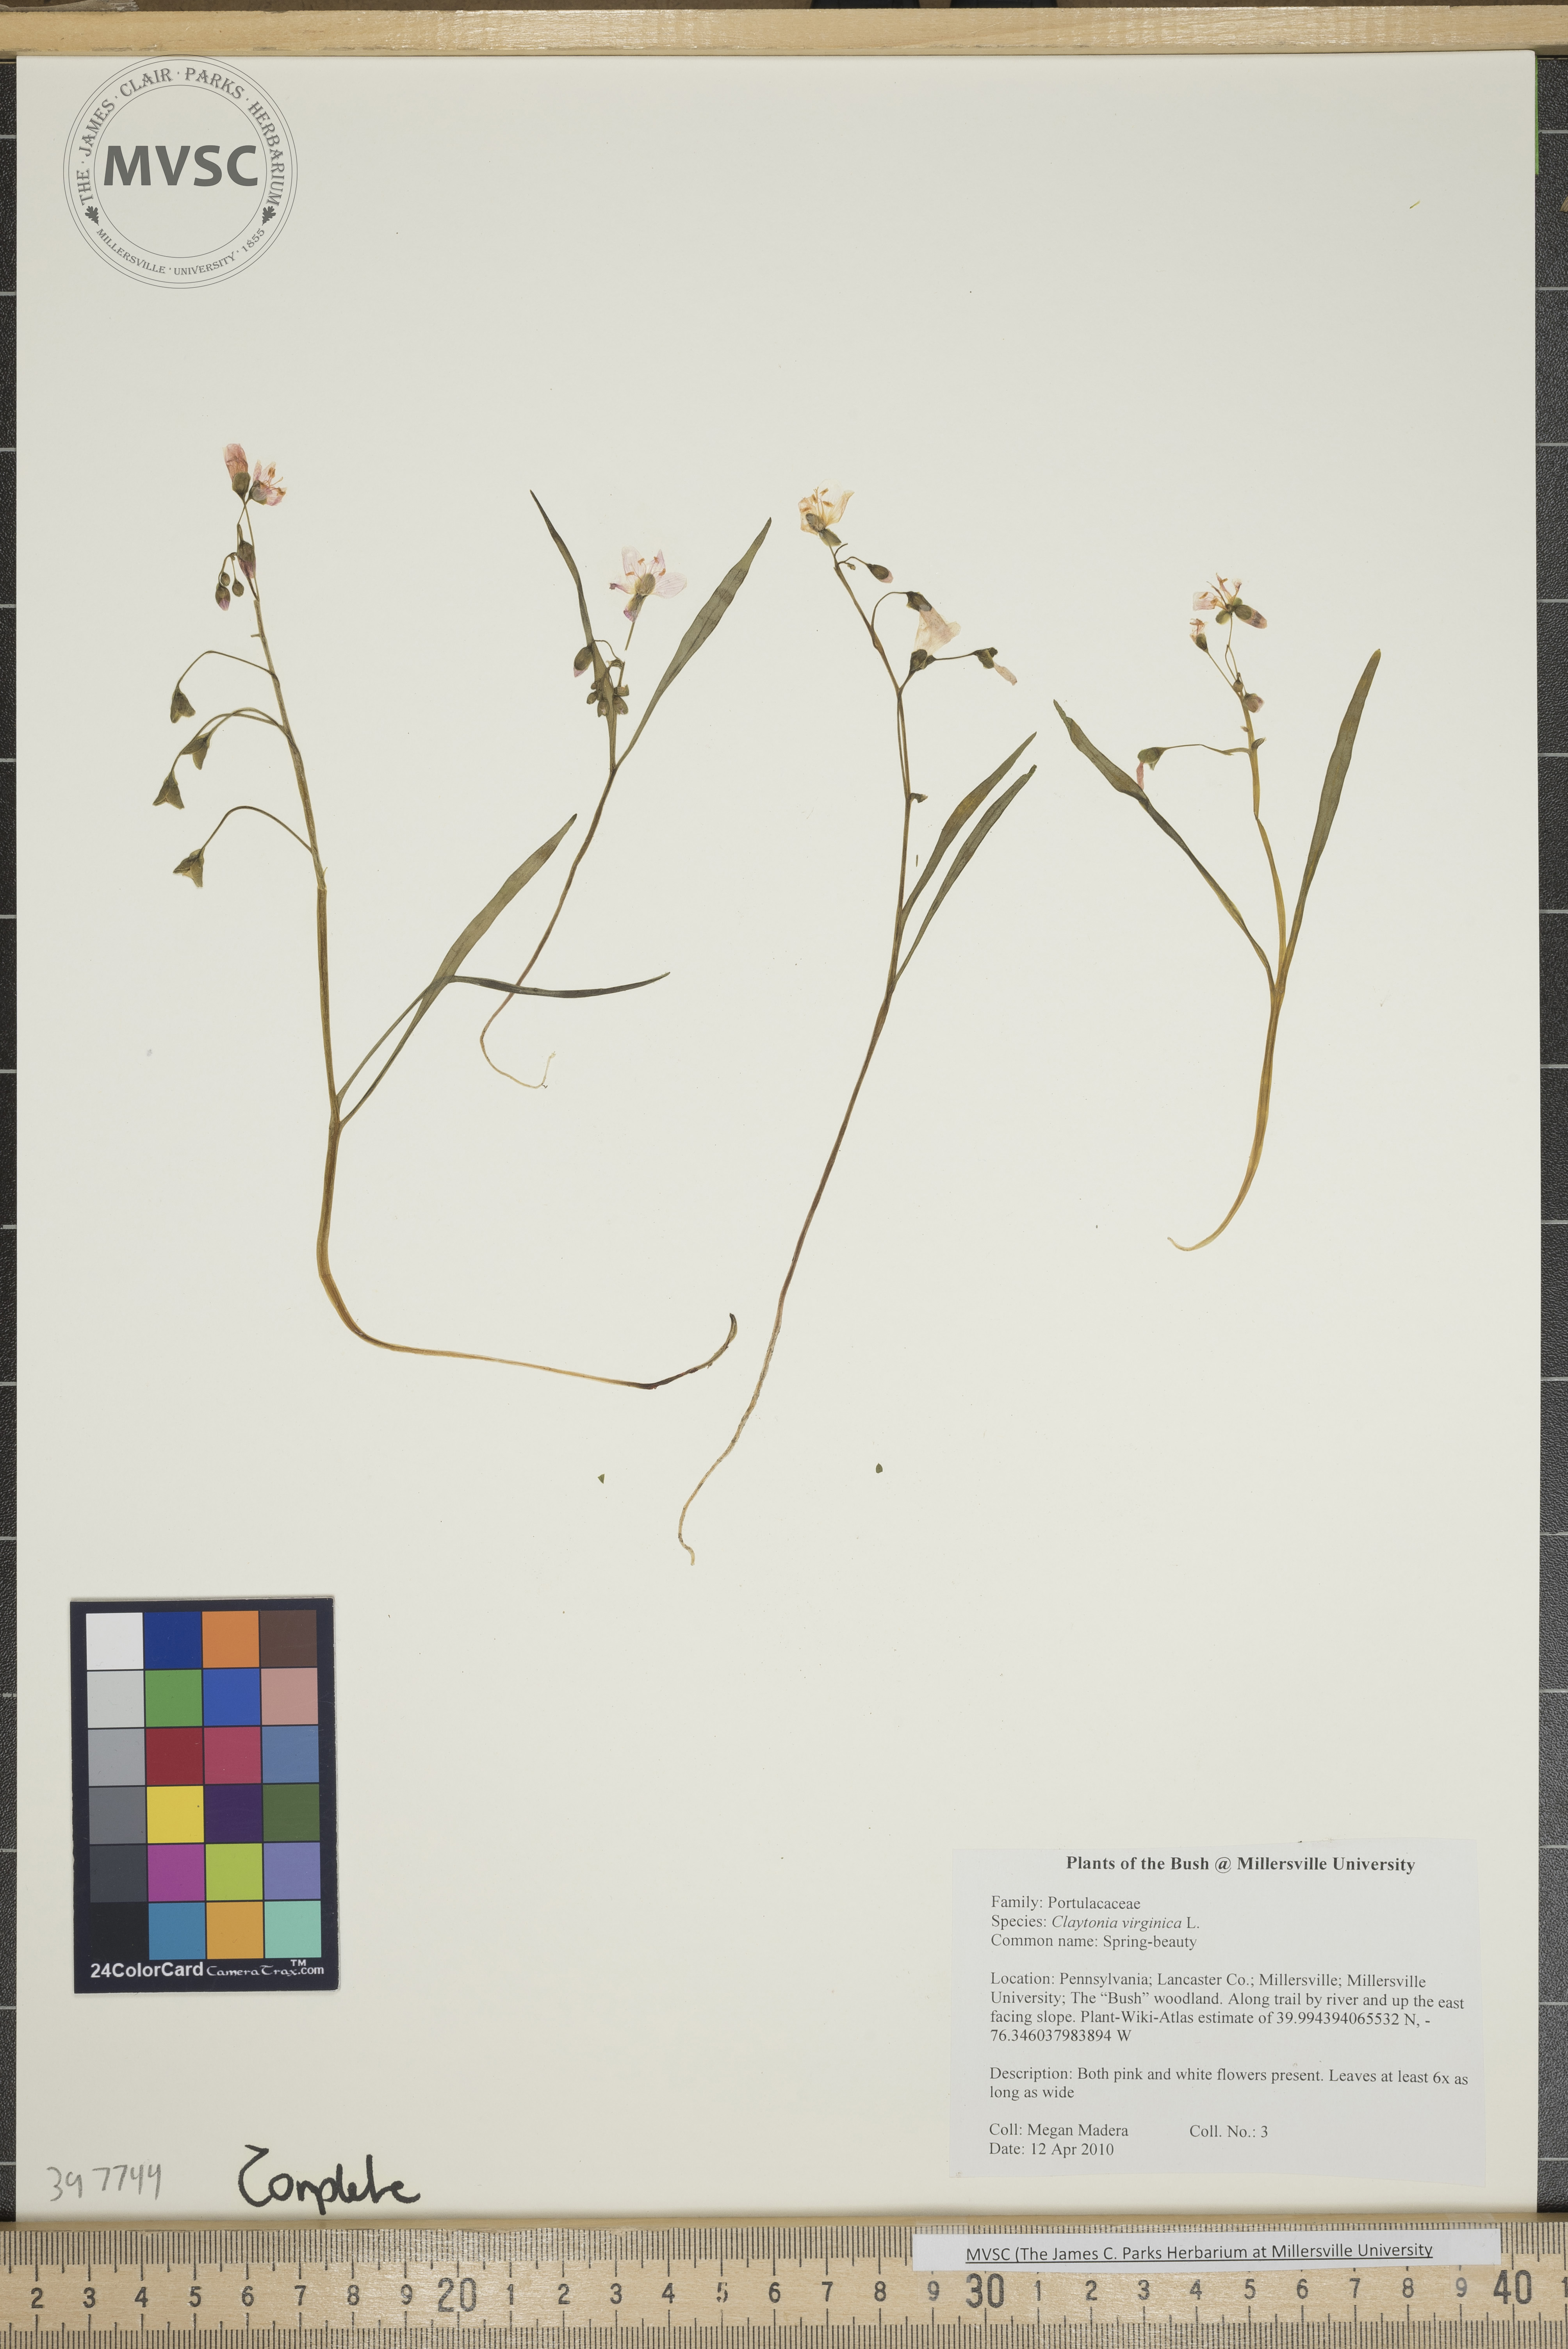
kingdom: Plantae
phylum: Tracheophyta
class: Magnoliopsida
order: Caryophyllales
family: Montiaceae
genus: Claytonia
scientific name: Claytonia virginica
